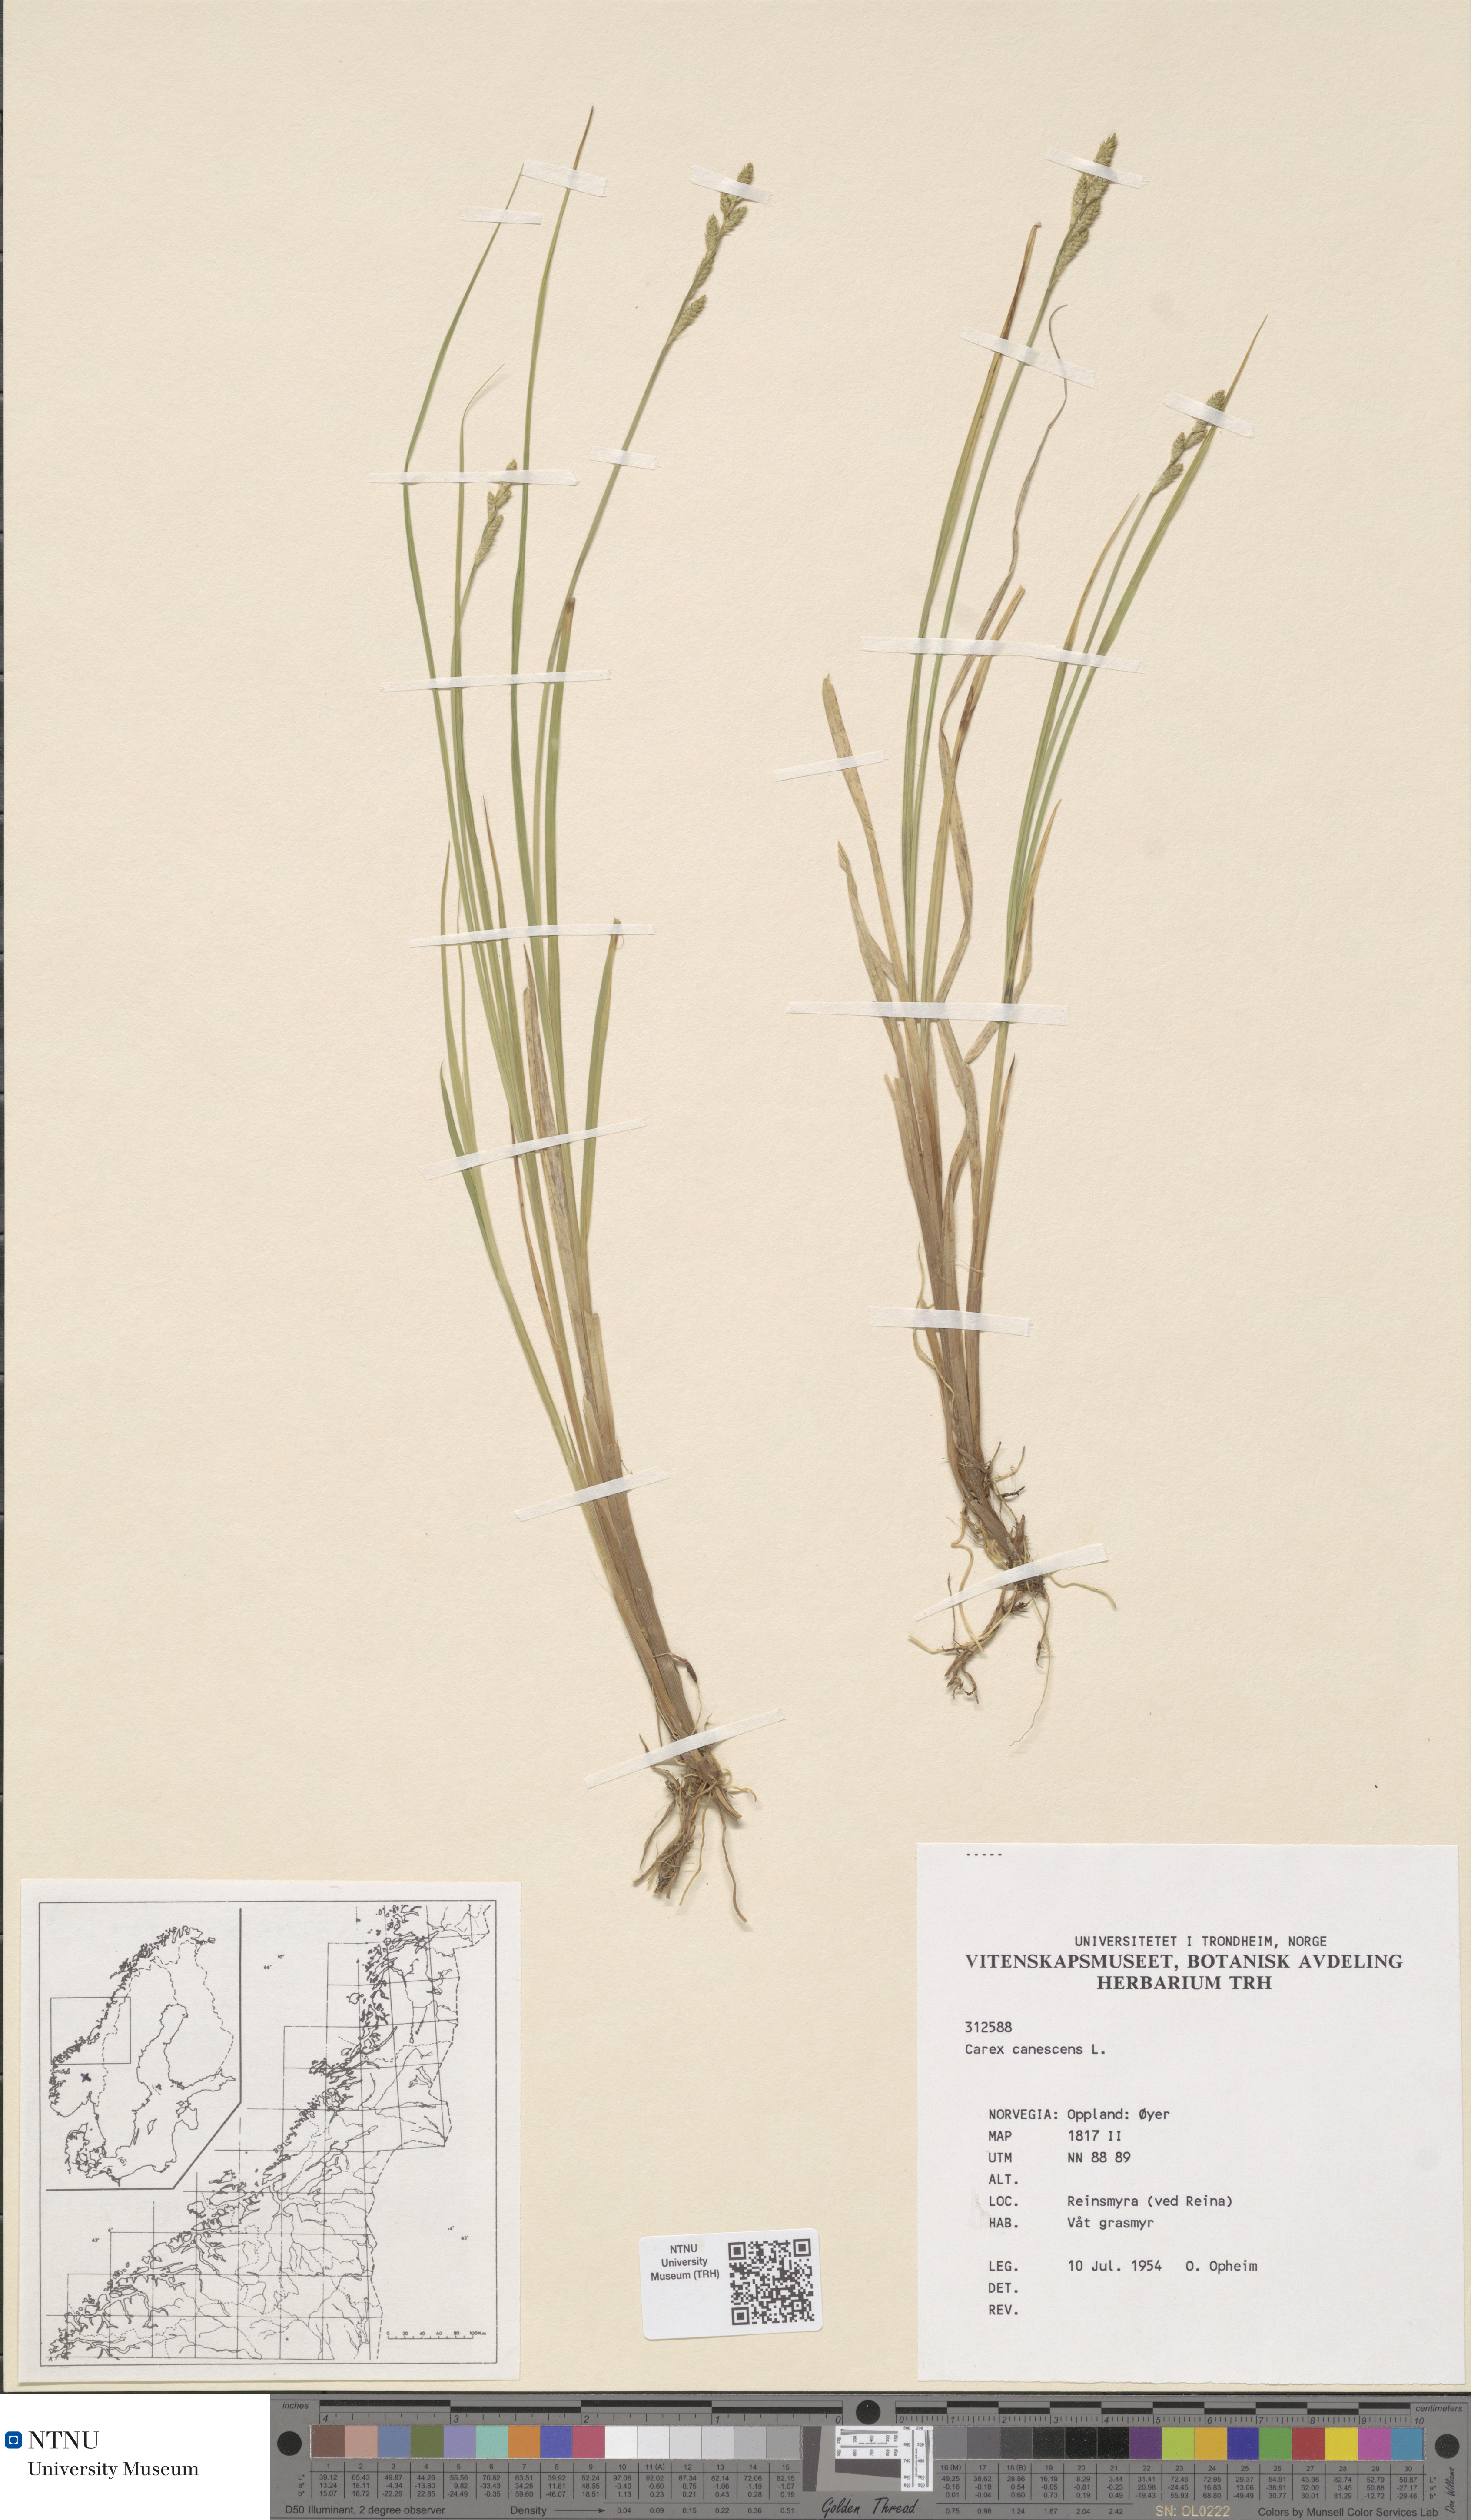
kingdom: Plantae
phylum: Tracheophyta
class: Liliopsida
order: Poales
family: Cyperaceae
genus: Carex
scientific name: Carex canescens
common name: White sedge
